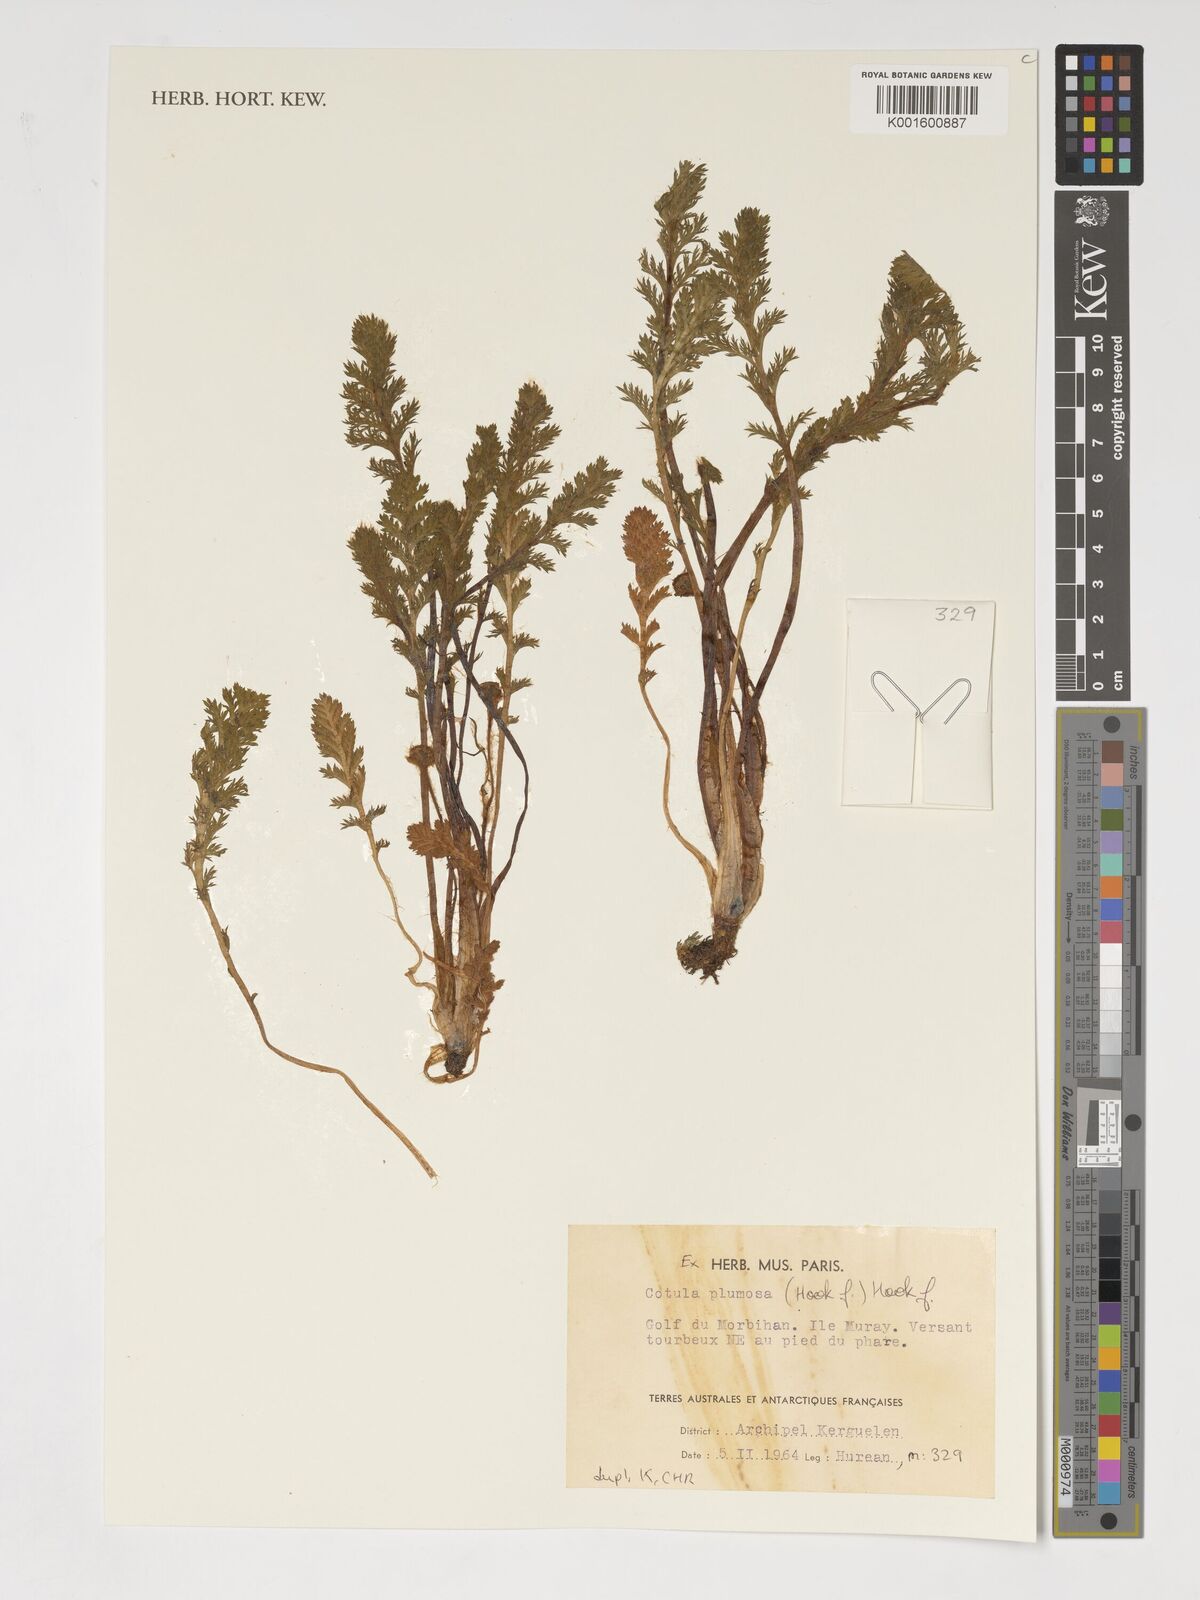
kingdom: Plantae
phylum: Tracheophyta
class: Magnoliopsida
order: Asterales
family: Asteraceae
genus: Leptinella
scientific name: Leptinella plumosa
